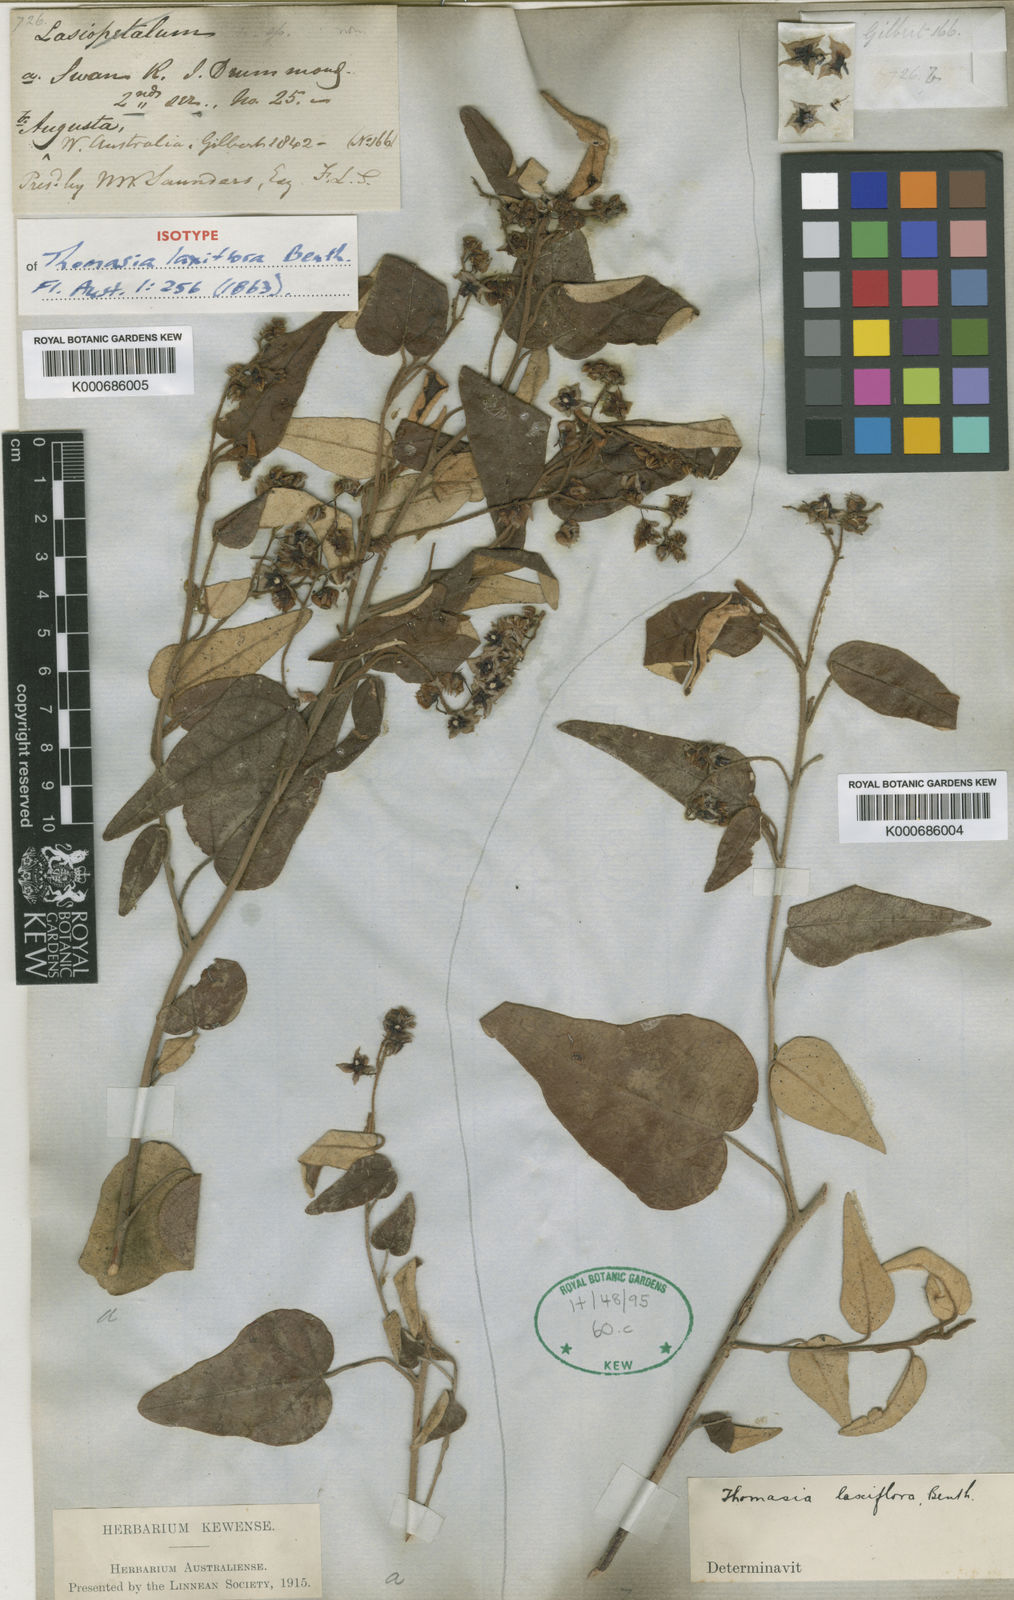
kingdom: Plantae
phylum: Tracheophyta
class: Magnoliopsida
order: Malvales
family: Malvaceae
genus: Lasiopetalum
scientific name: Lasiopetalum laxiflorum
